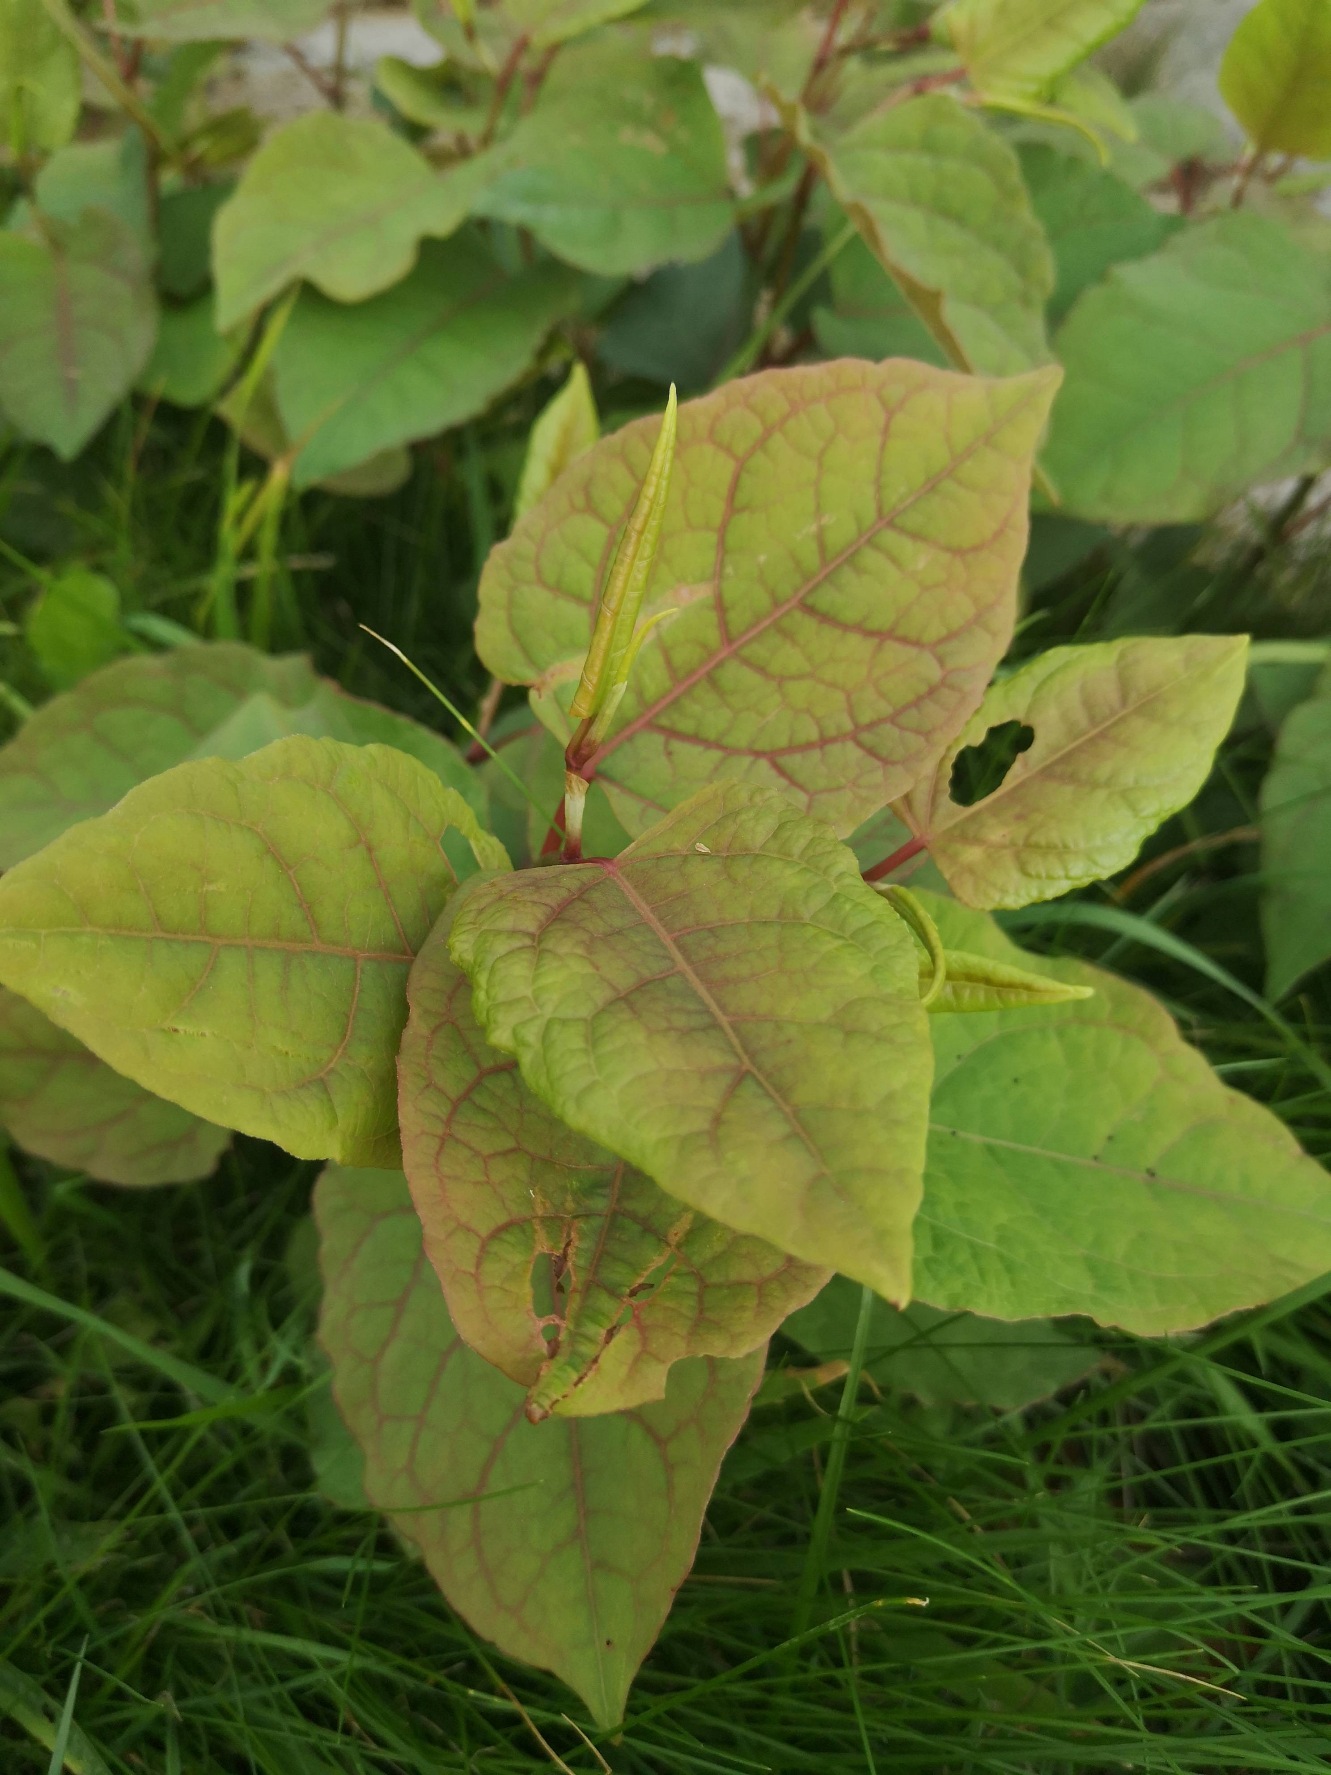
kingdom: Plantae
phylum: Tracheophyta
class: Magnoliopsida
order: Caryophyllales
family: Polygonaceae
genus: Reynoutria
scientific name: Reynoutria japonica
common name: Japan-pileurt
